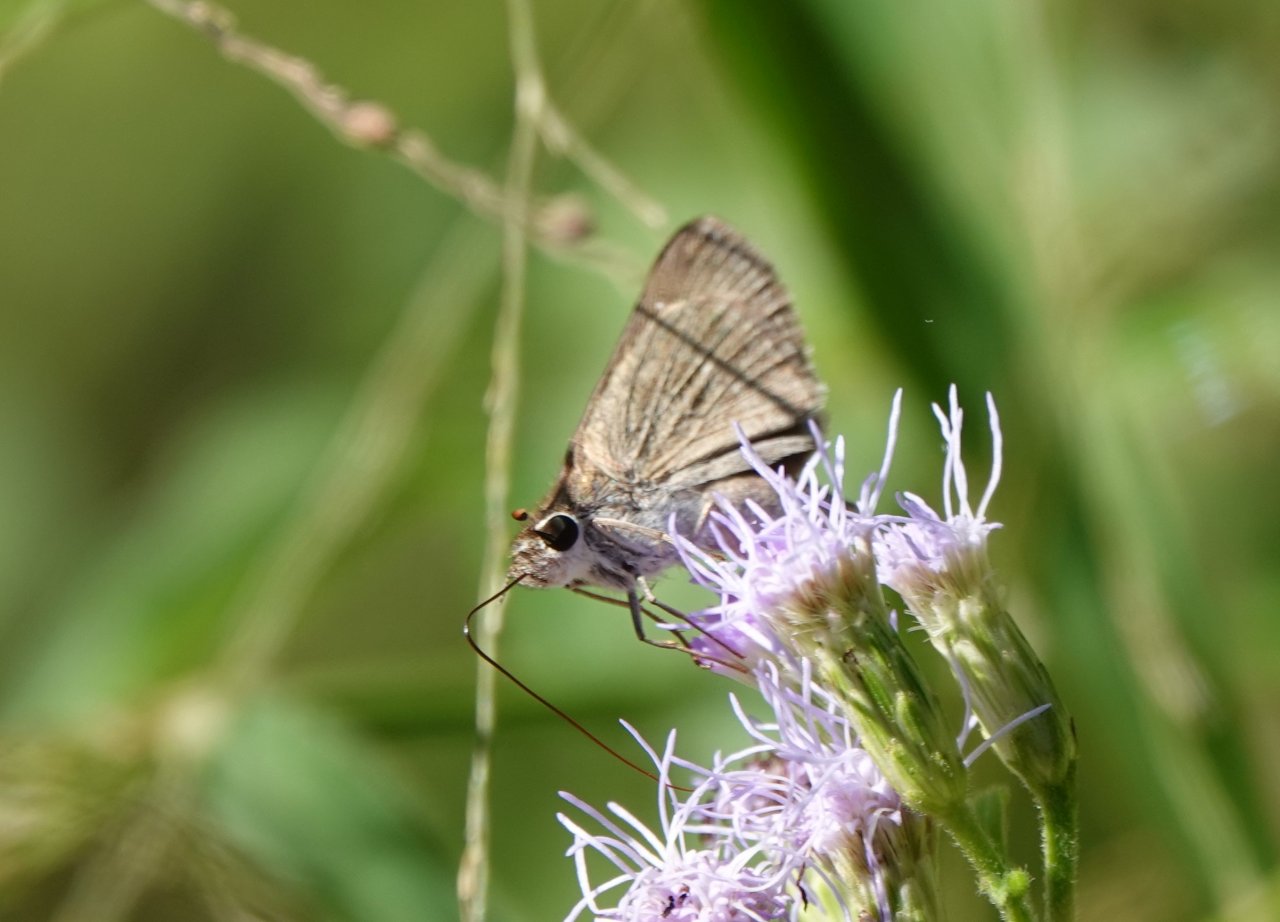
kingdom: Animalia
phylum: Arthropoda
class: Insecta
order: Lepidoptera
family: Hesperiidae
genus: Lerodea
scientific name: Lerodea eufala
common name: Eufala Skipper
